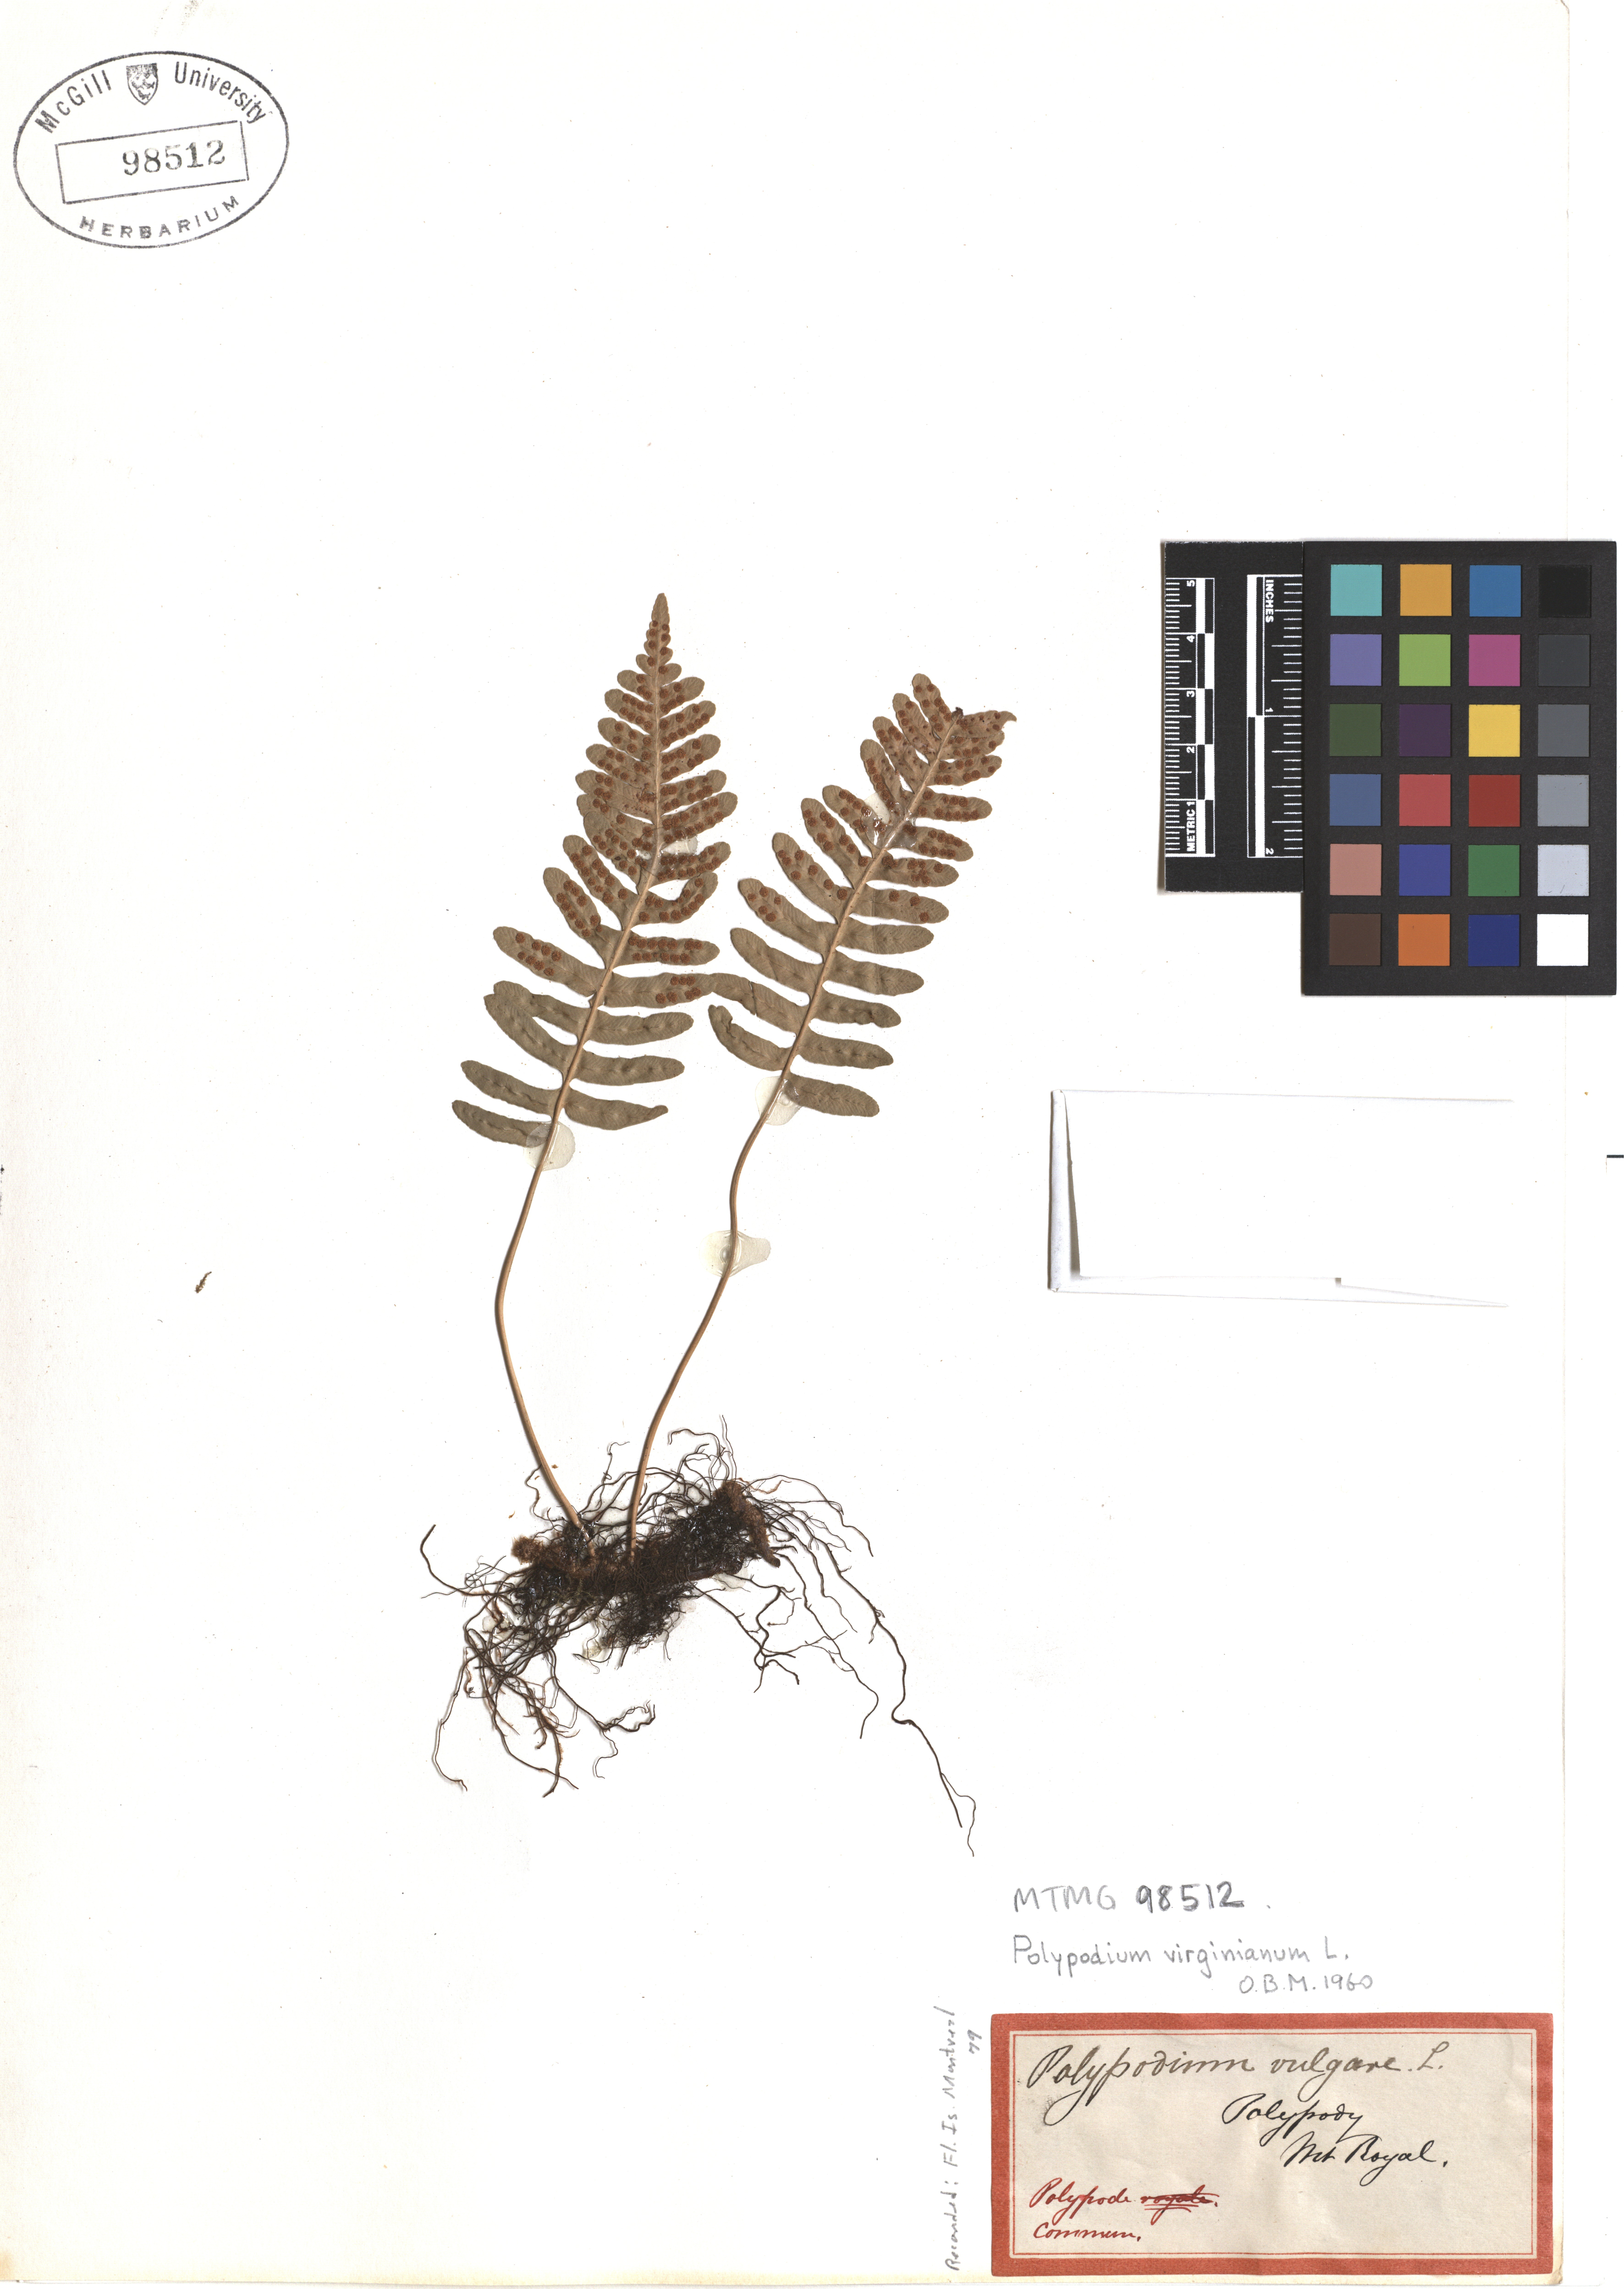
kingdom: Plantae
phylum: Tracheophyta
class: Polypodiopsida
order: Polypodiales
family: Polypodiaceae
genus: Polypodium
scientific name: Polypodium virginianum
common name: American wall fern
